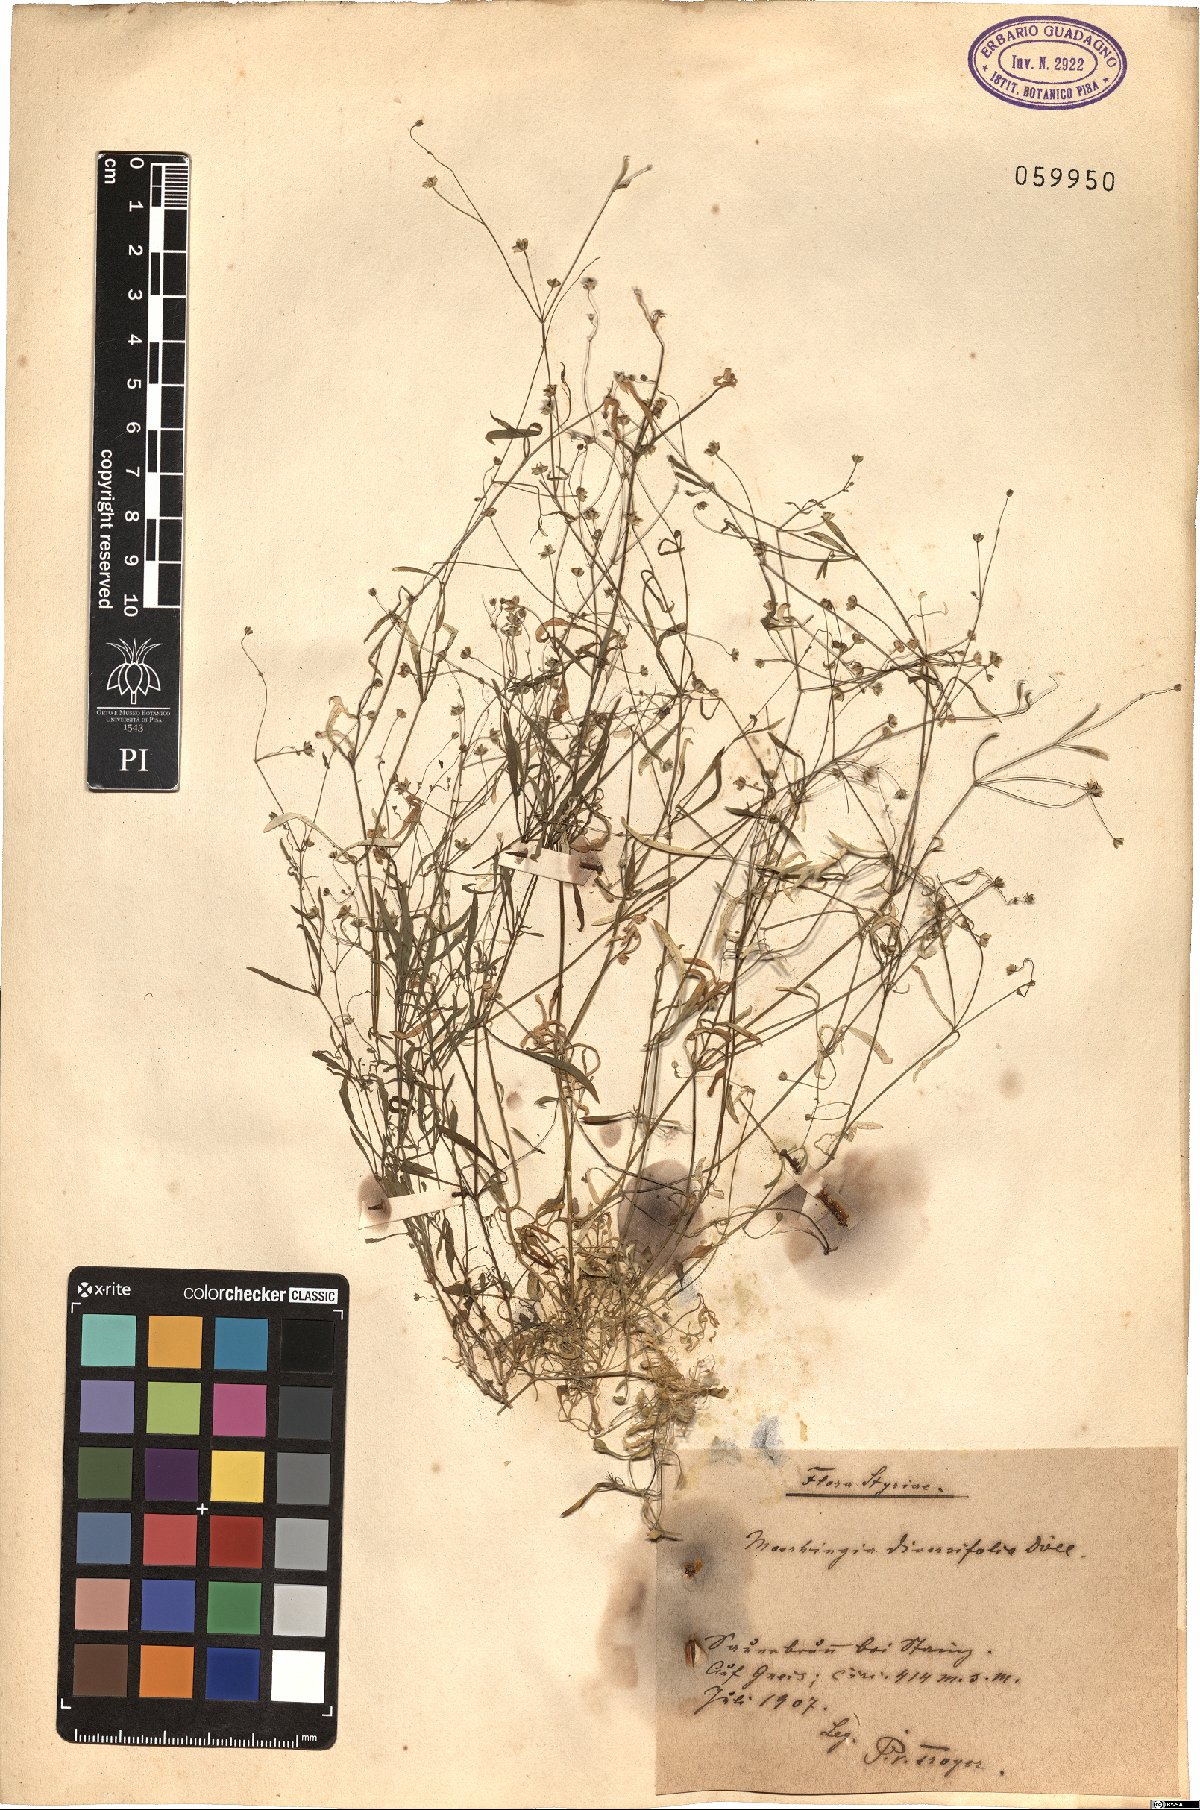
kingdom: Plantae
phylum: Tracheophyta
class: Magnoliopsida
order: Caryophyllales
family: Caryophyllaceae
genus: Moehringia
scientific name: Moehringia diversifolia
